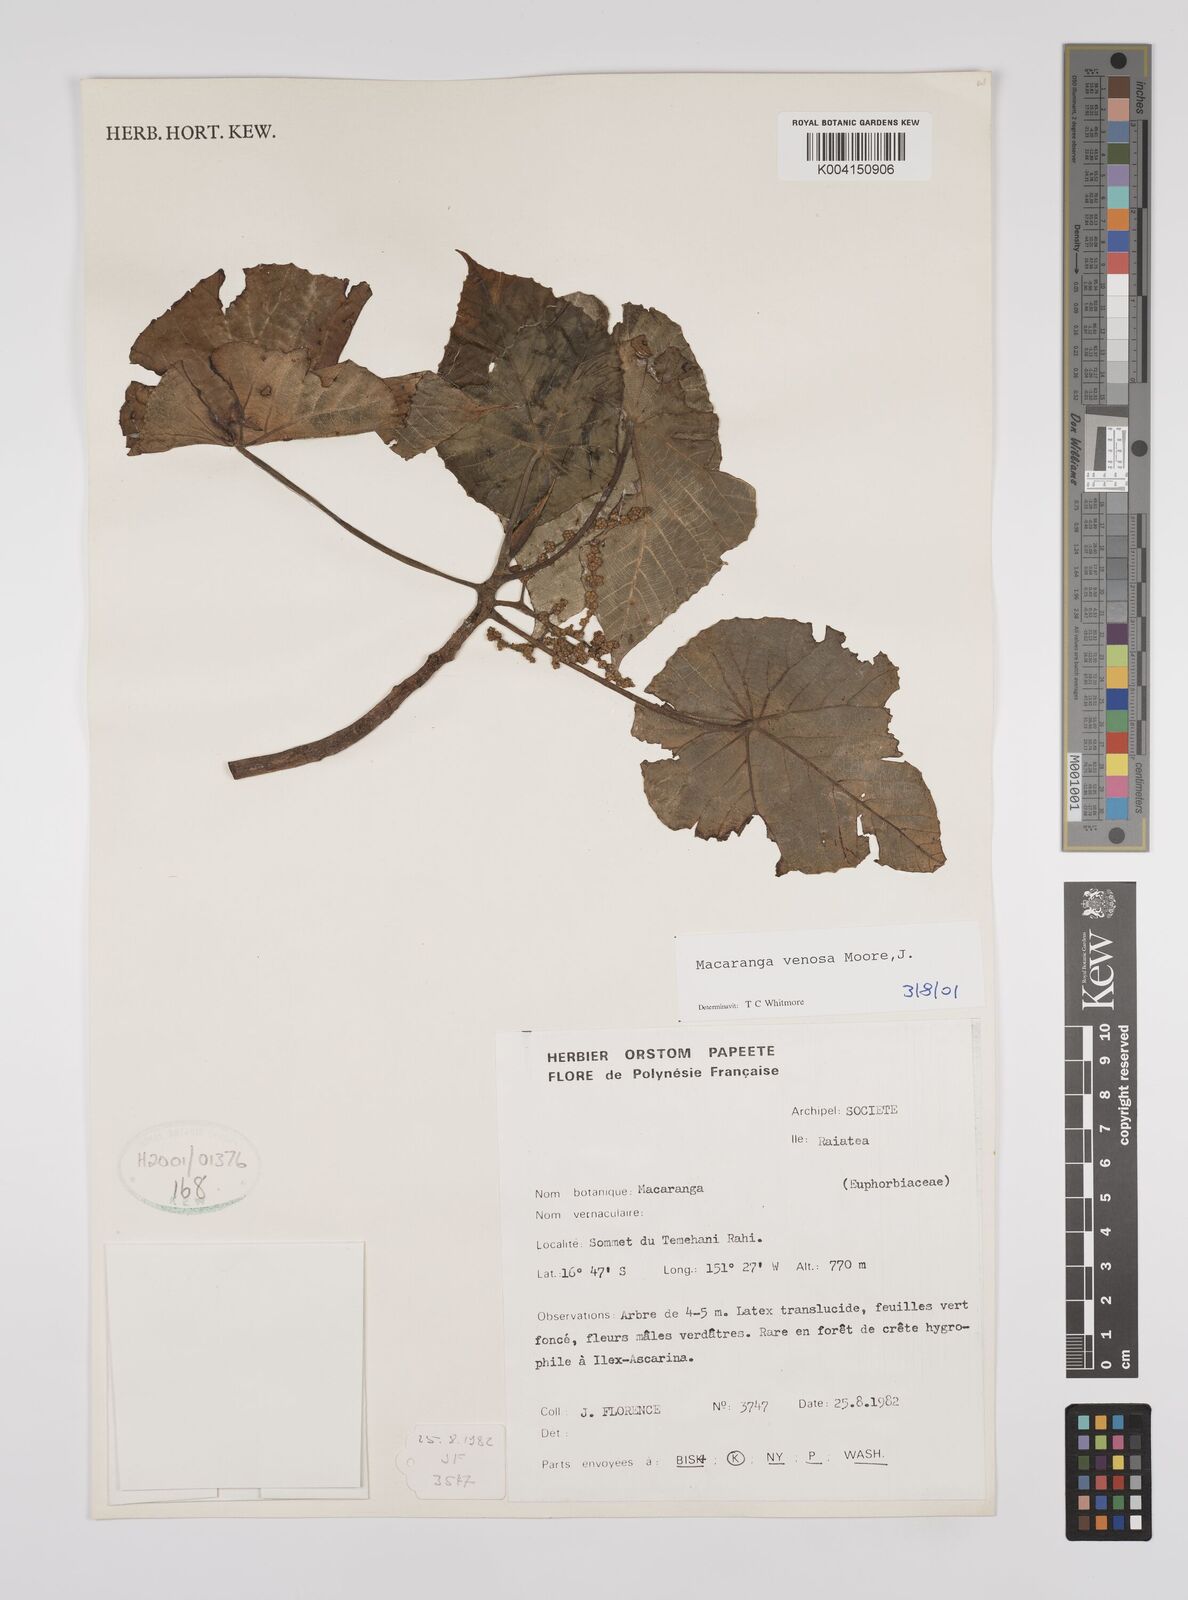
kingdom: Plantae
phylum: Tracheophyta
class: Magnoliopsida
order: Malpighiales
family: Euphorbiaceae
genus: Macaranga
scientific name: Macaranga venosa
